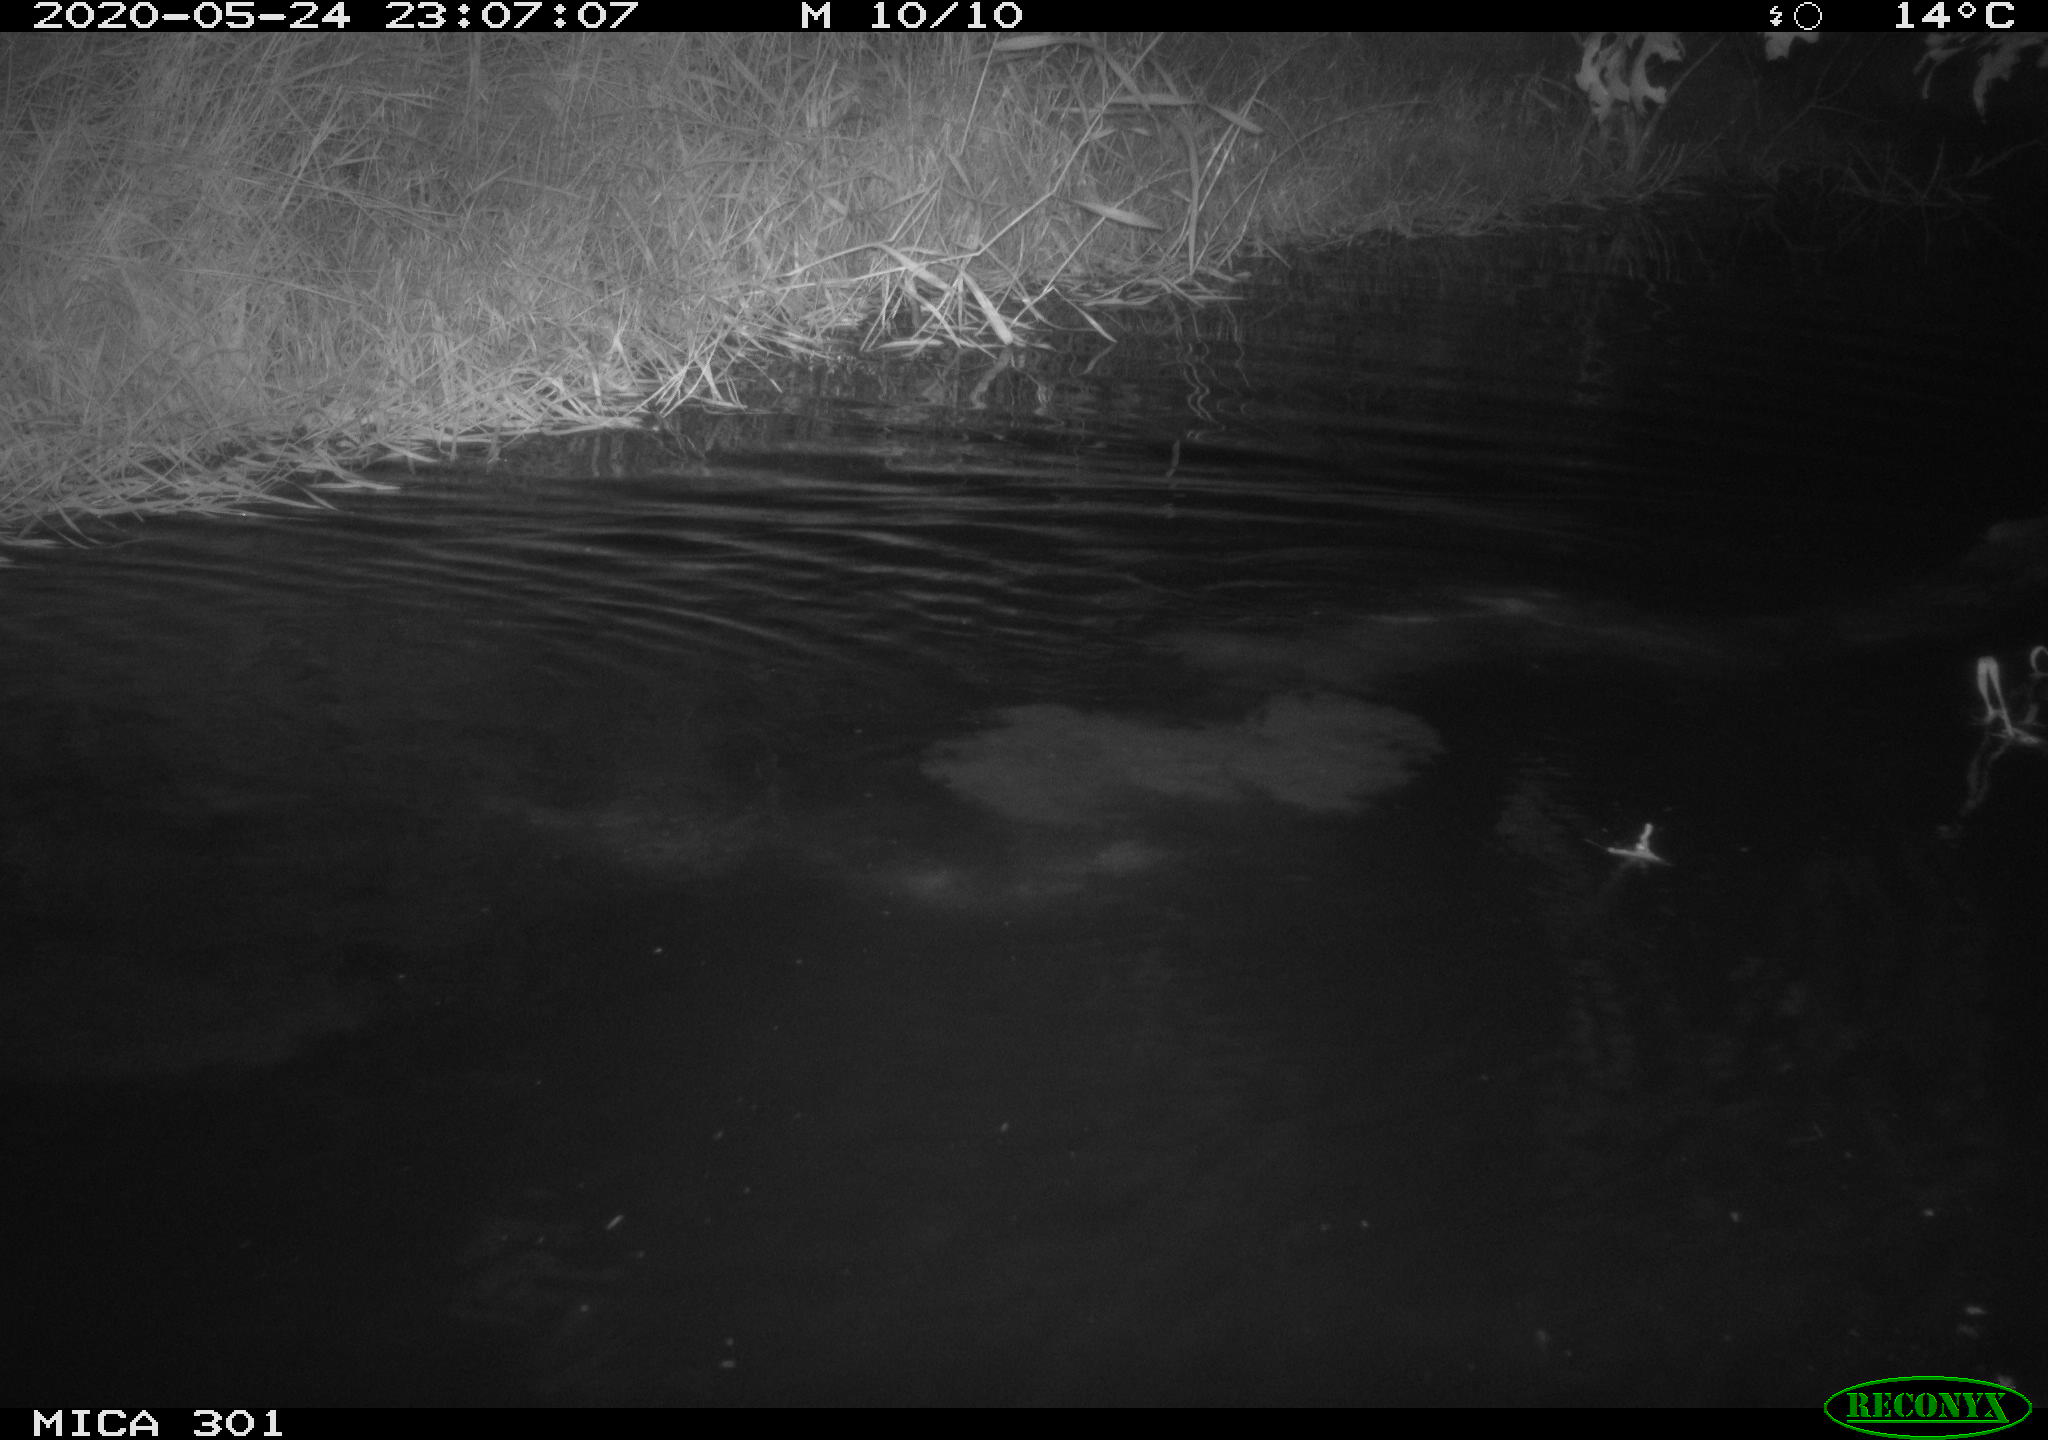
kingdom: Animalia
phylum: Chordata
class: Mammalia
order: Rodentia
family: Castoridae
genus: Castor
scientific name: Castor fiber
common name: Eurasian beaver
